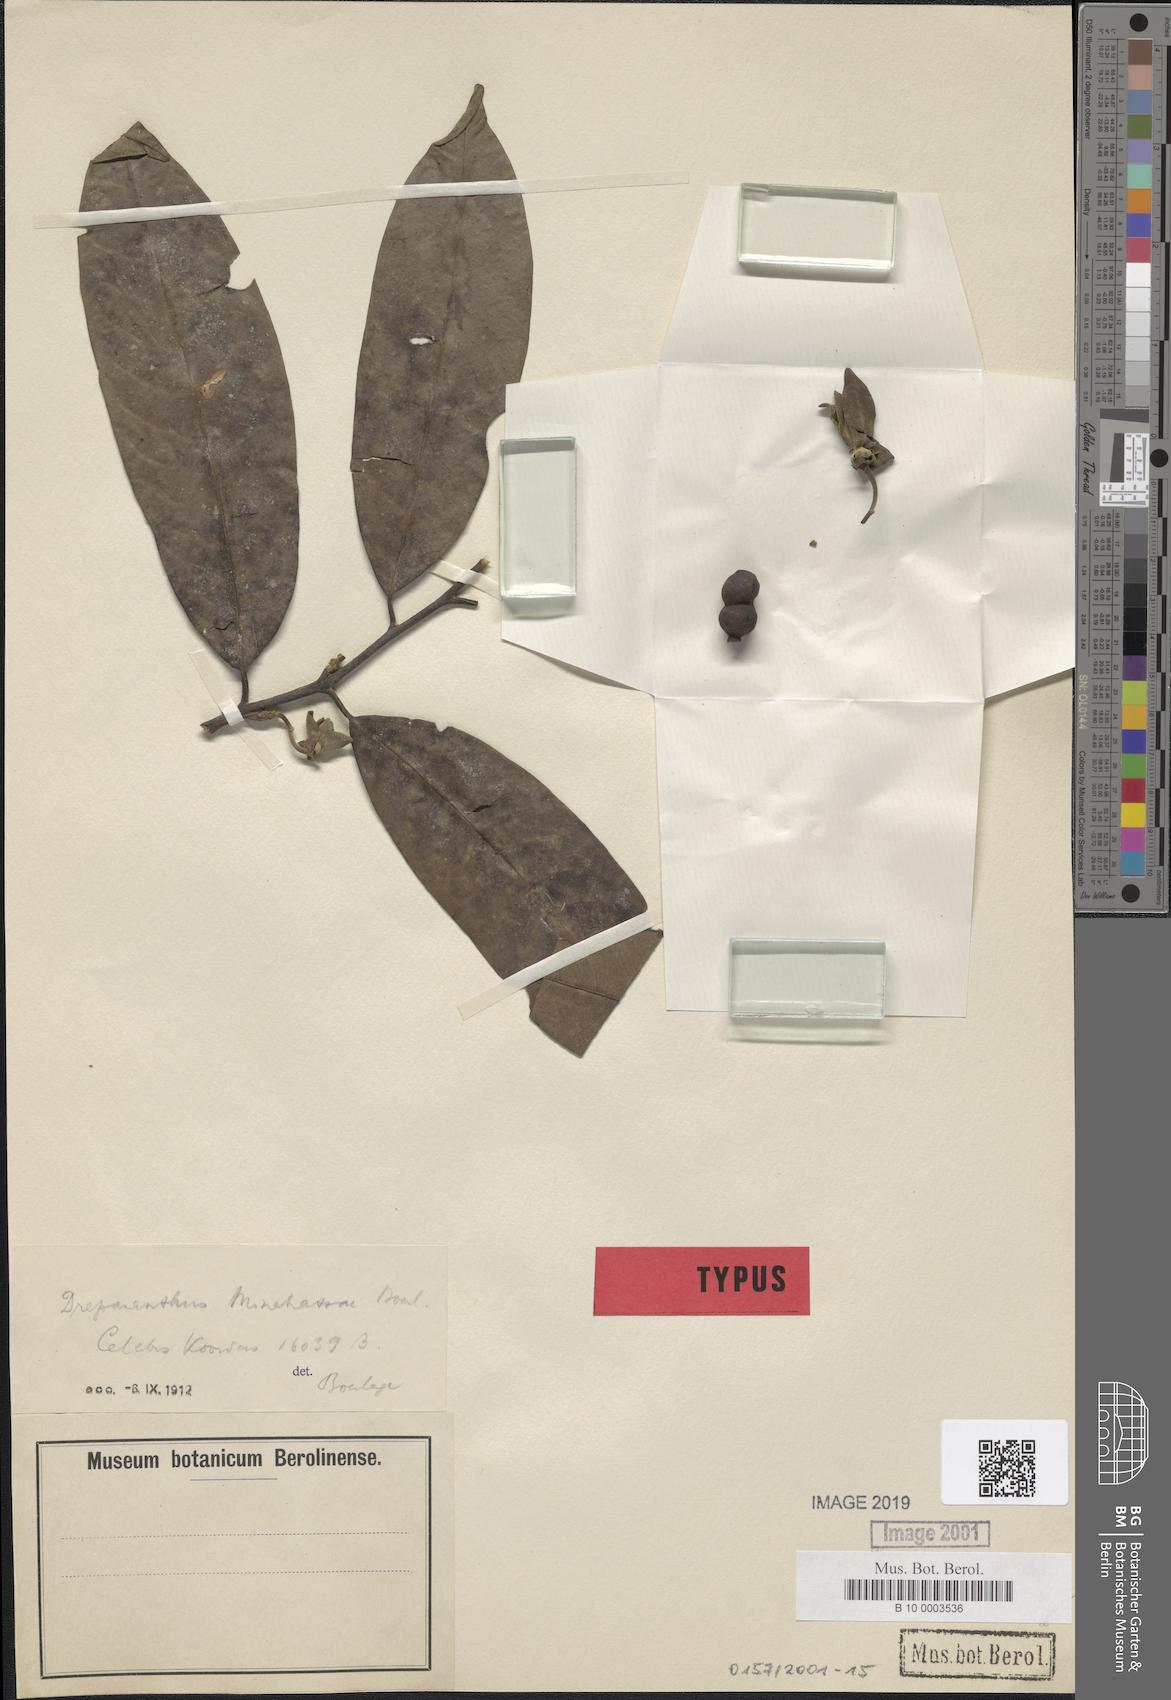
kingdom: Plantae
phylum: Tracheophyta
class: Magnoliopsida
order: Magnoliales
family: Annonaceae
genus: Drepananthus
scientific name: Drepananthus minahassae
